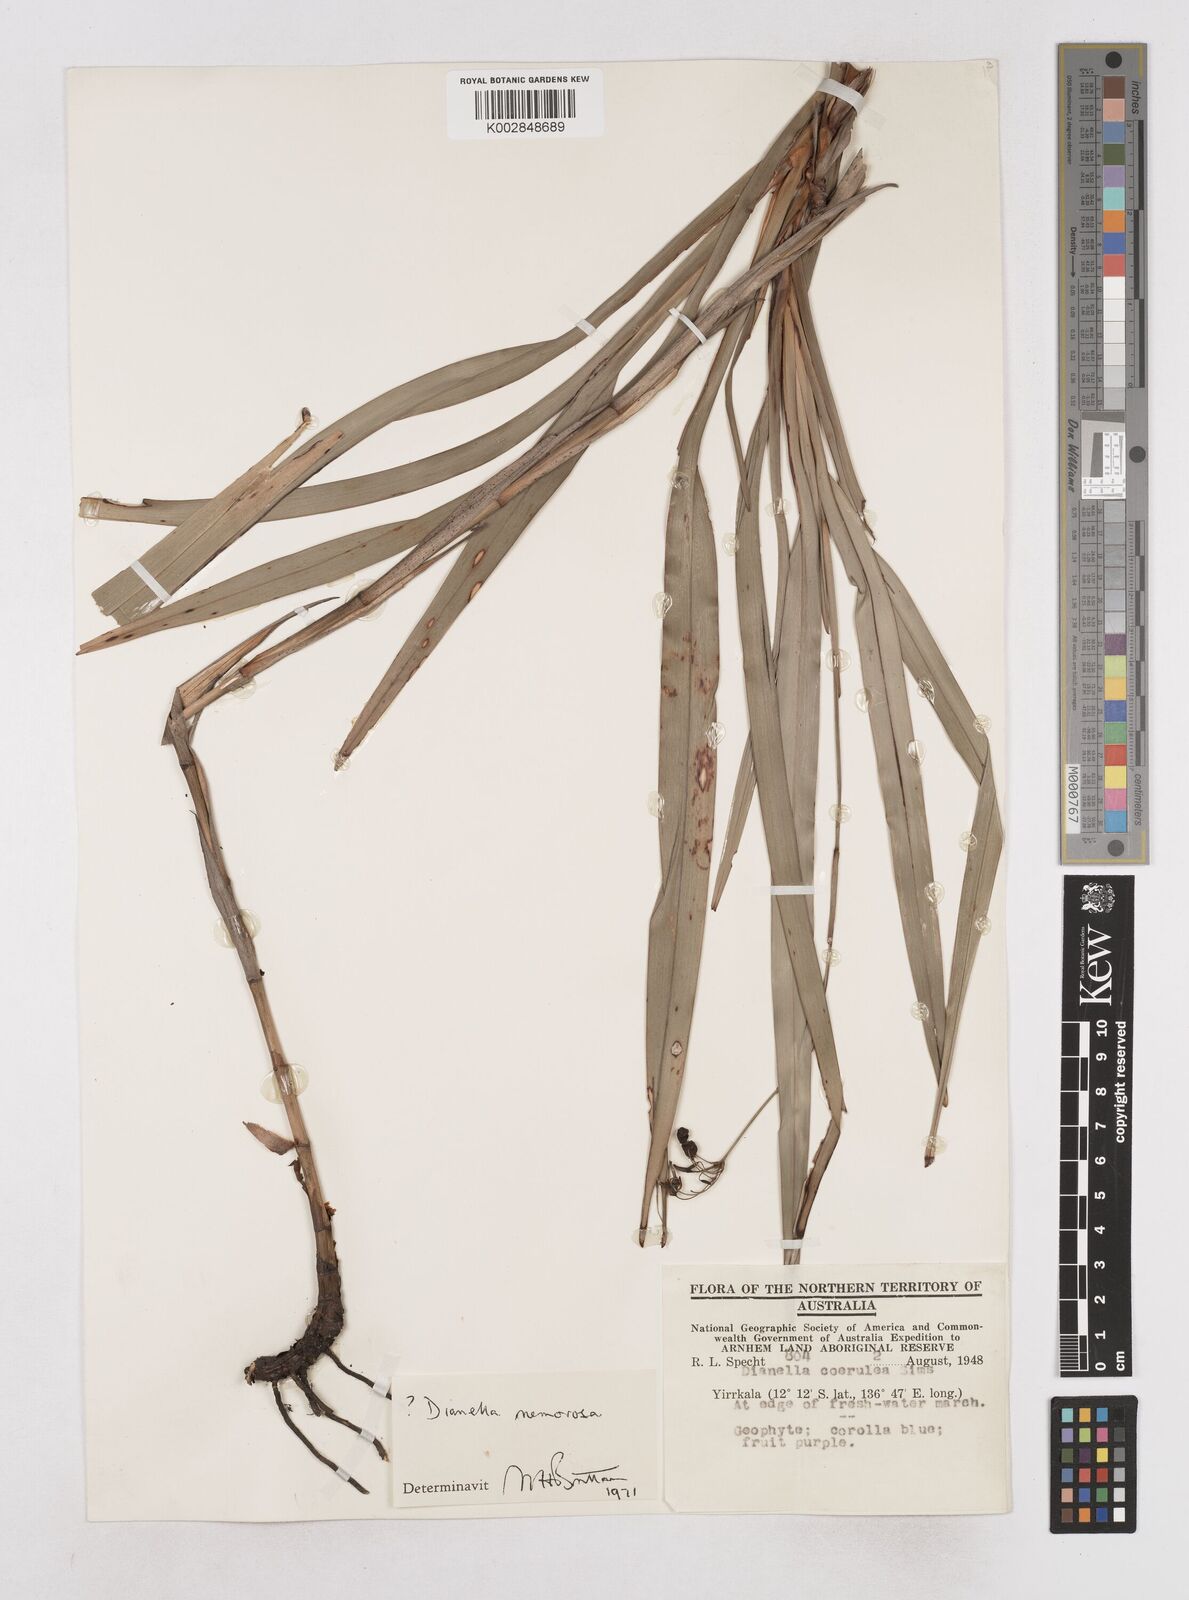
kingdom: Plantae
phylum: Tracheophyta
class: Liliopsida
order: Asparagales
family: Asphodelaceae
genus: Dianella
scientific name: Dianella ensifolia
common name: New zealand lilyplant
